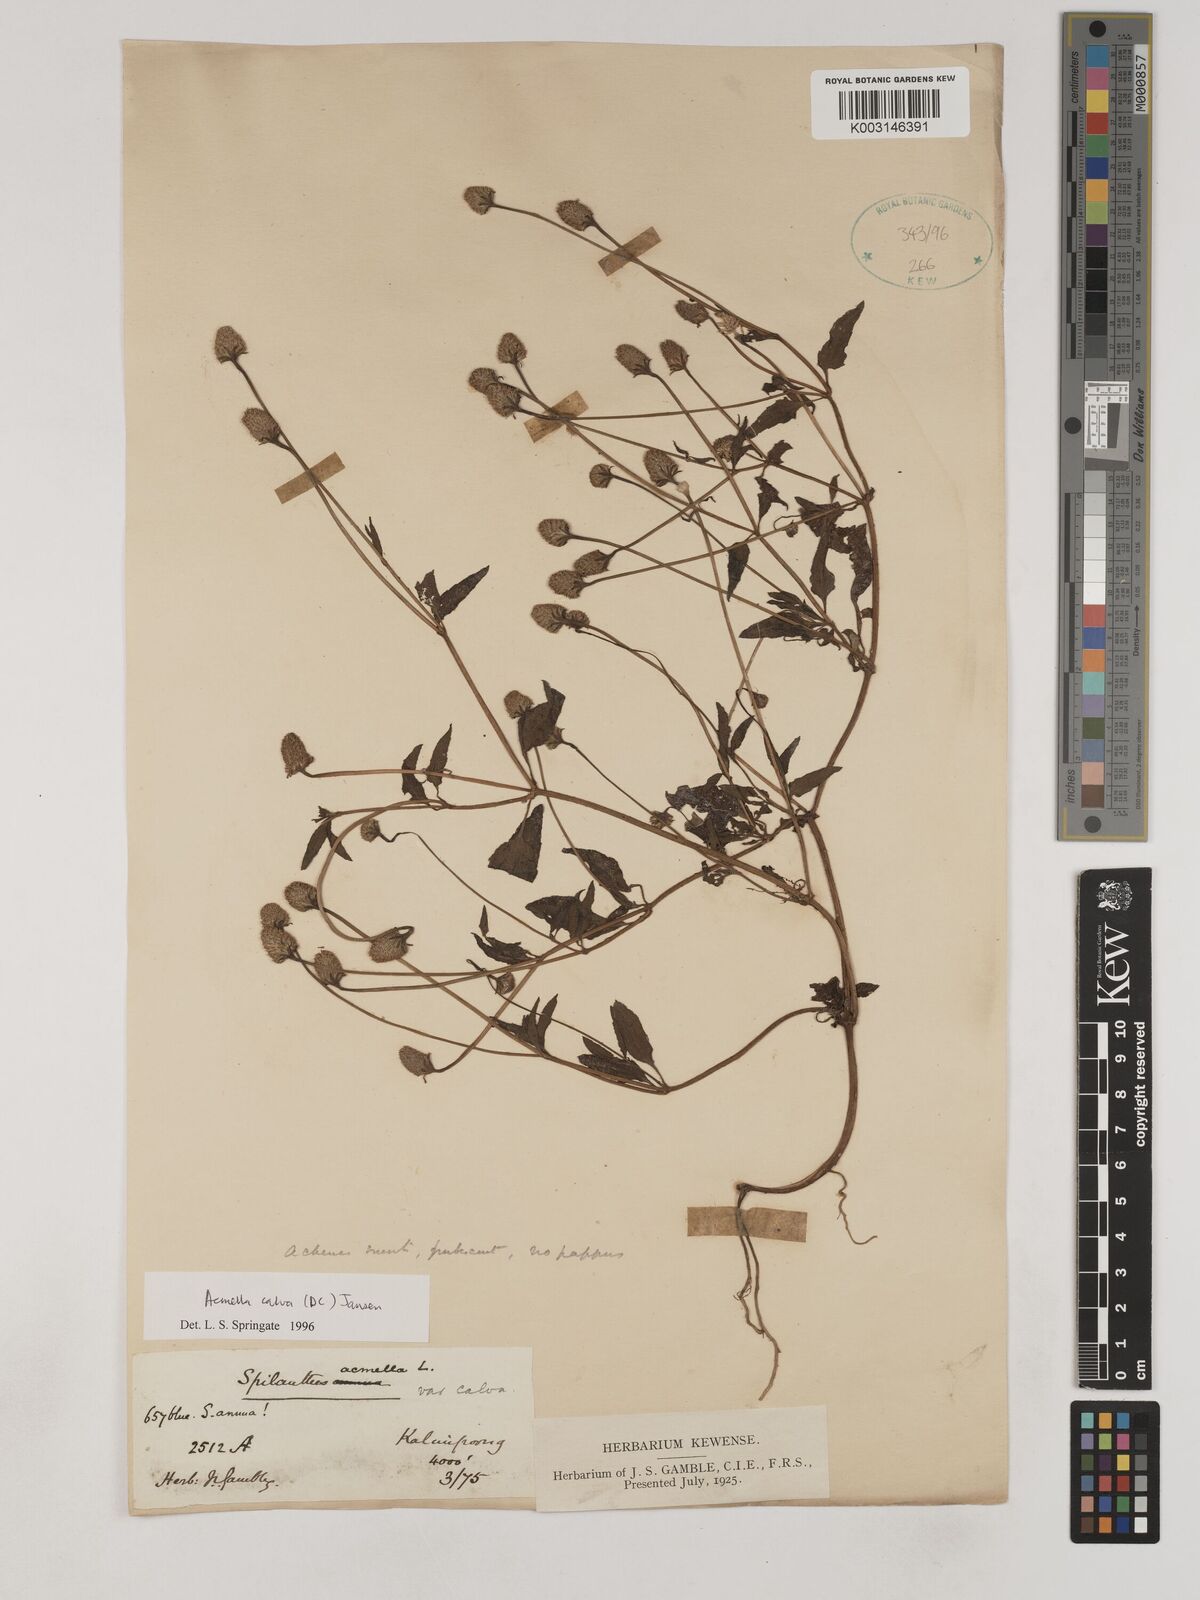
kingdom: Plantae
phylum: Tracheophyta
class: Magnoliopsida
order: Asterales
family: Asteraceae
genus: Acmella
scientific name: Acmella calva
